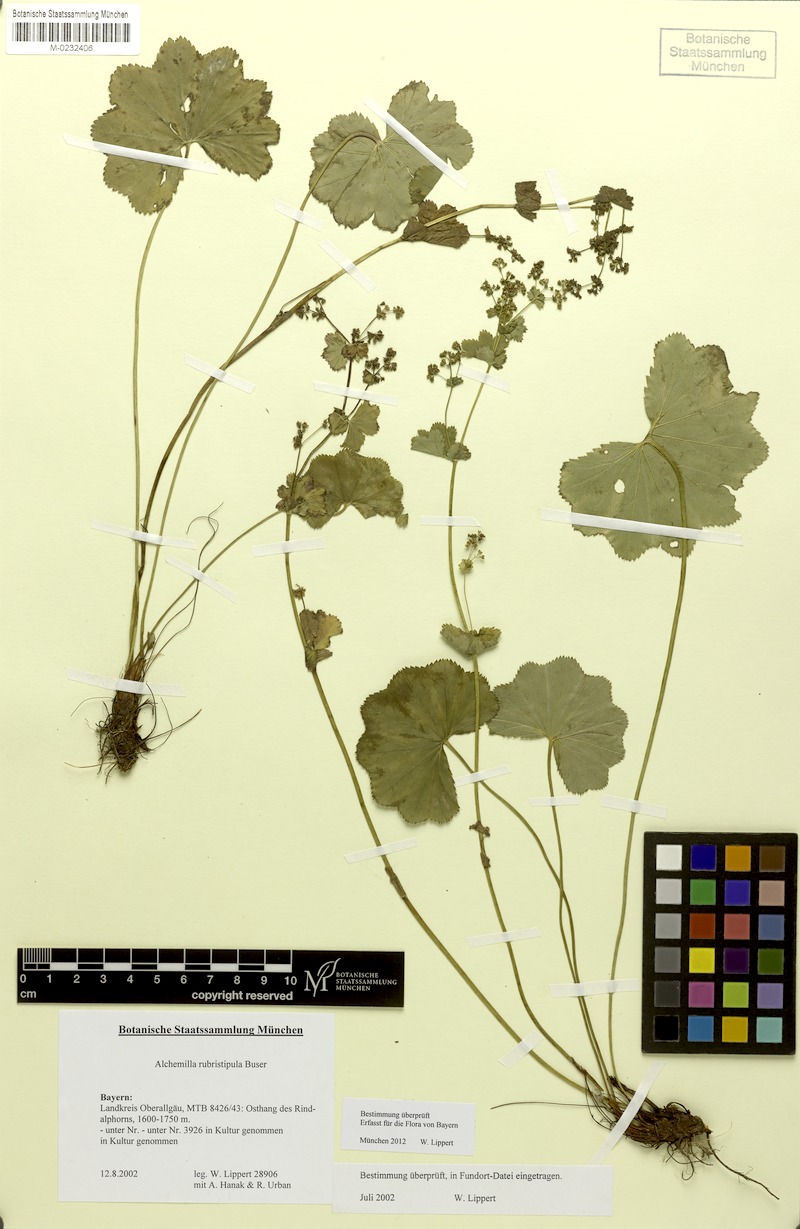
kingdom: Plantae
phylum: Tracheophyta
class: Magnoliopsida
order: Rosales
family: Rosaceae
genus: Alchemilla
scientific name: Alchemilla rubristipula
